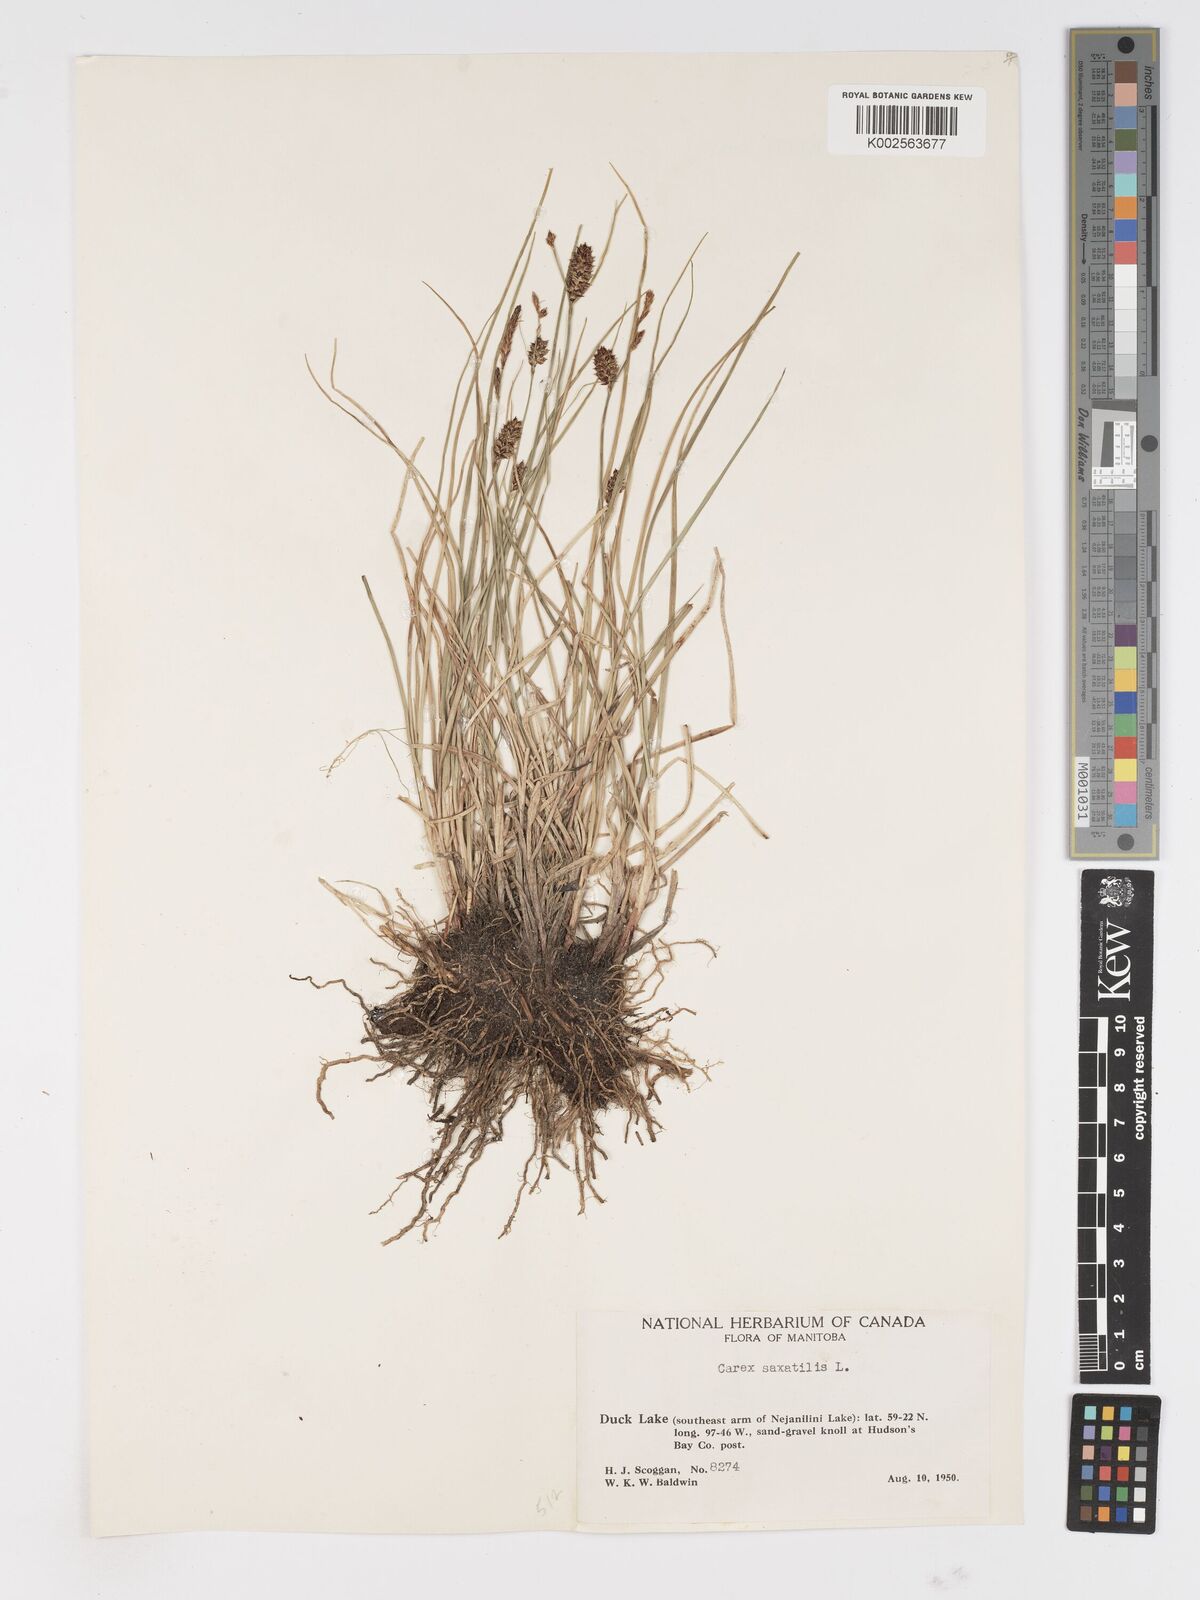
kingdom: Plantae
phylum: Tracheophyta
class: Liliopsida
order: Poales
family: Cyperaceae
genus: Carex
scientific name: Carex saxatilis
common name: Russet sedge
